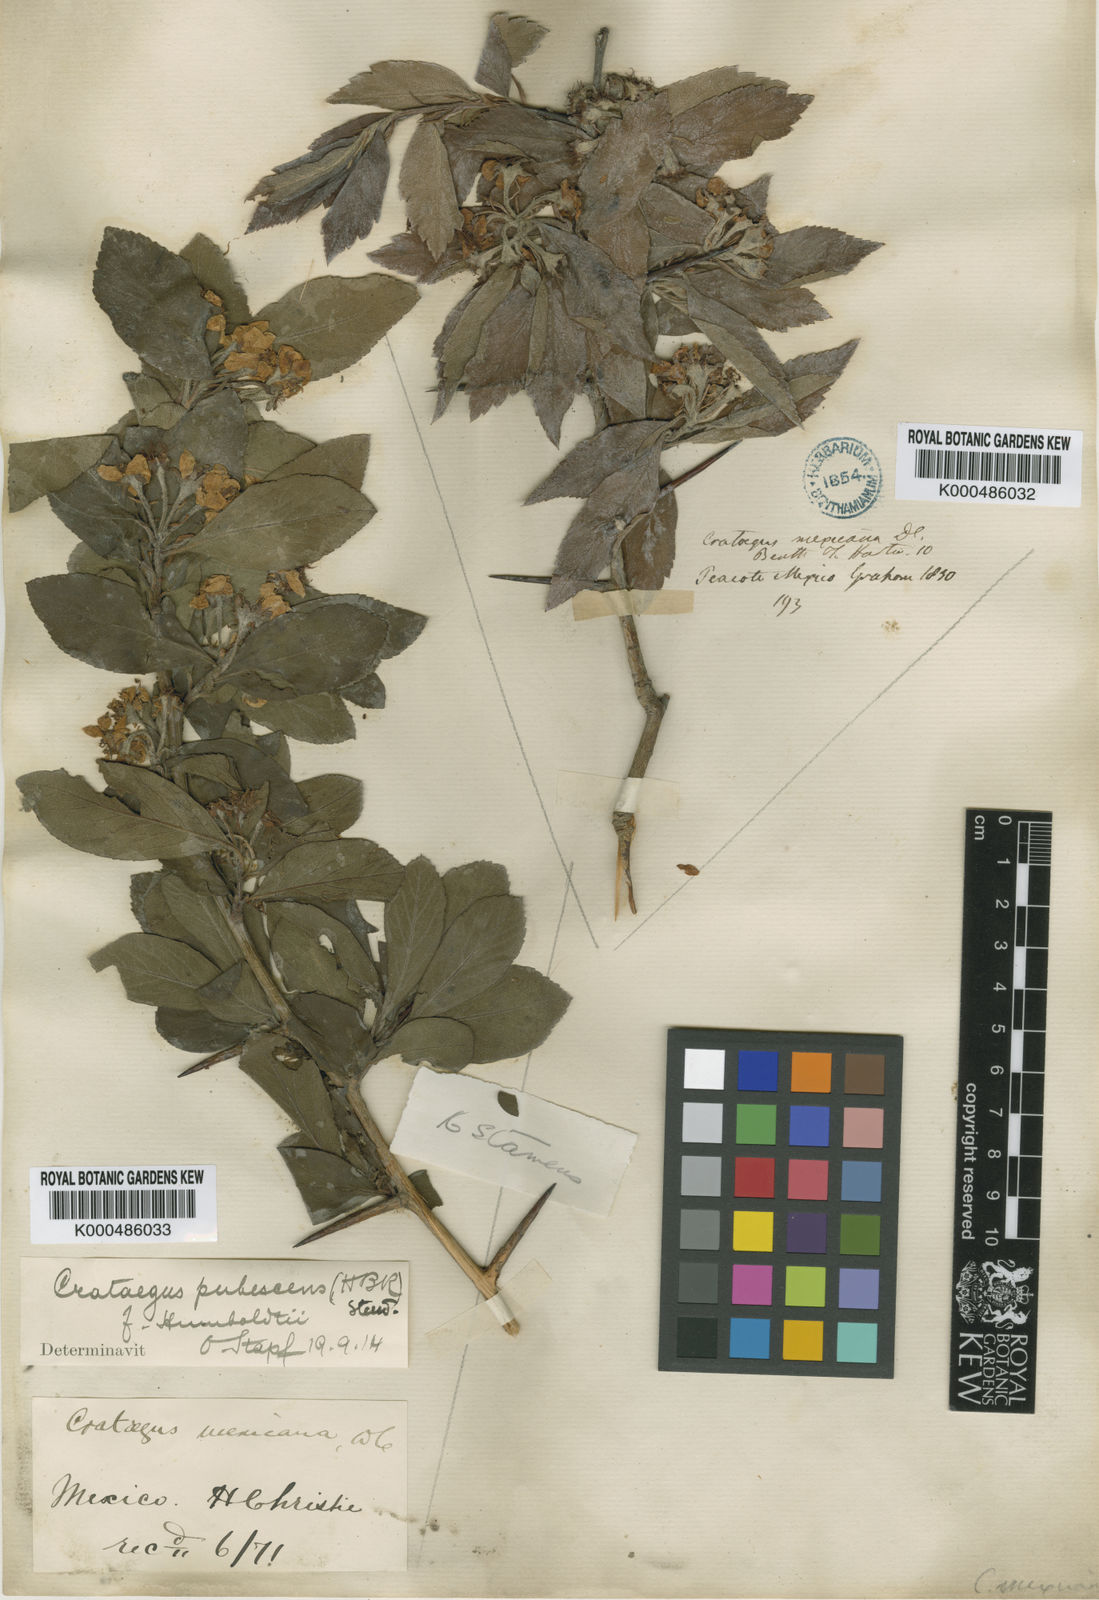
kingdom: Plantae
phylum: Tracheophyta
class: Magnoliopsida
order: Rosales
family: Rosaceae
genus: Crataegus
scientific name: Crataegus gracilior
